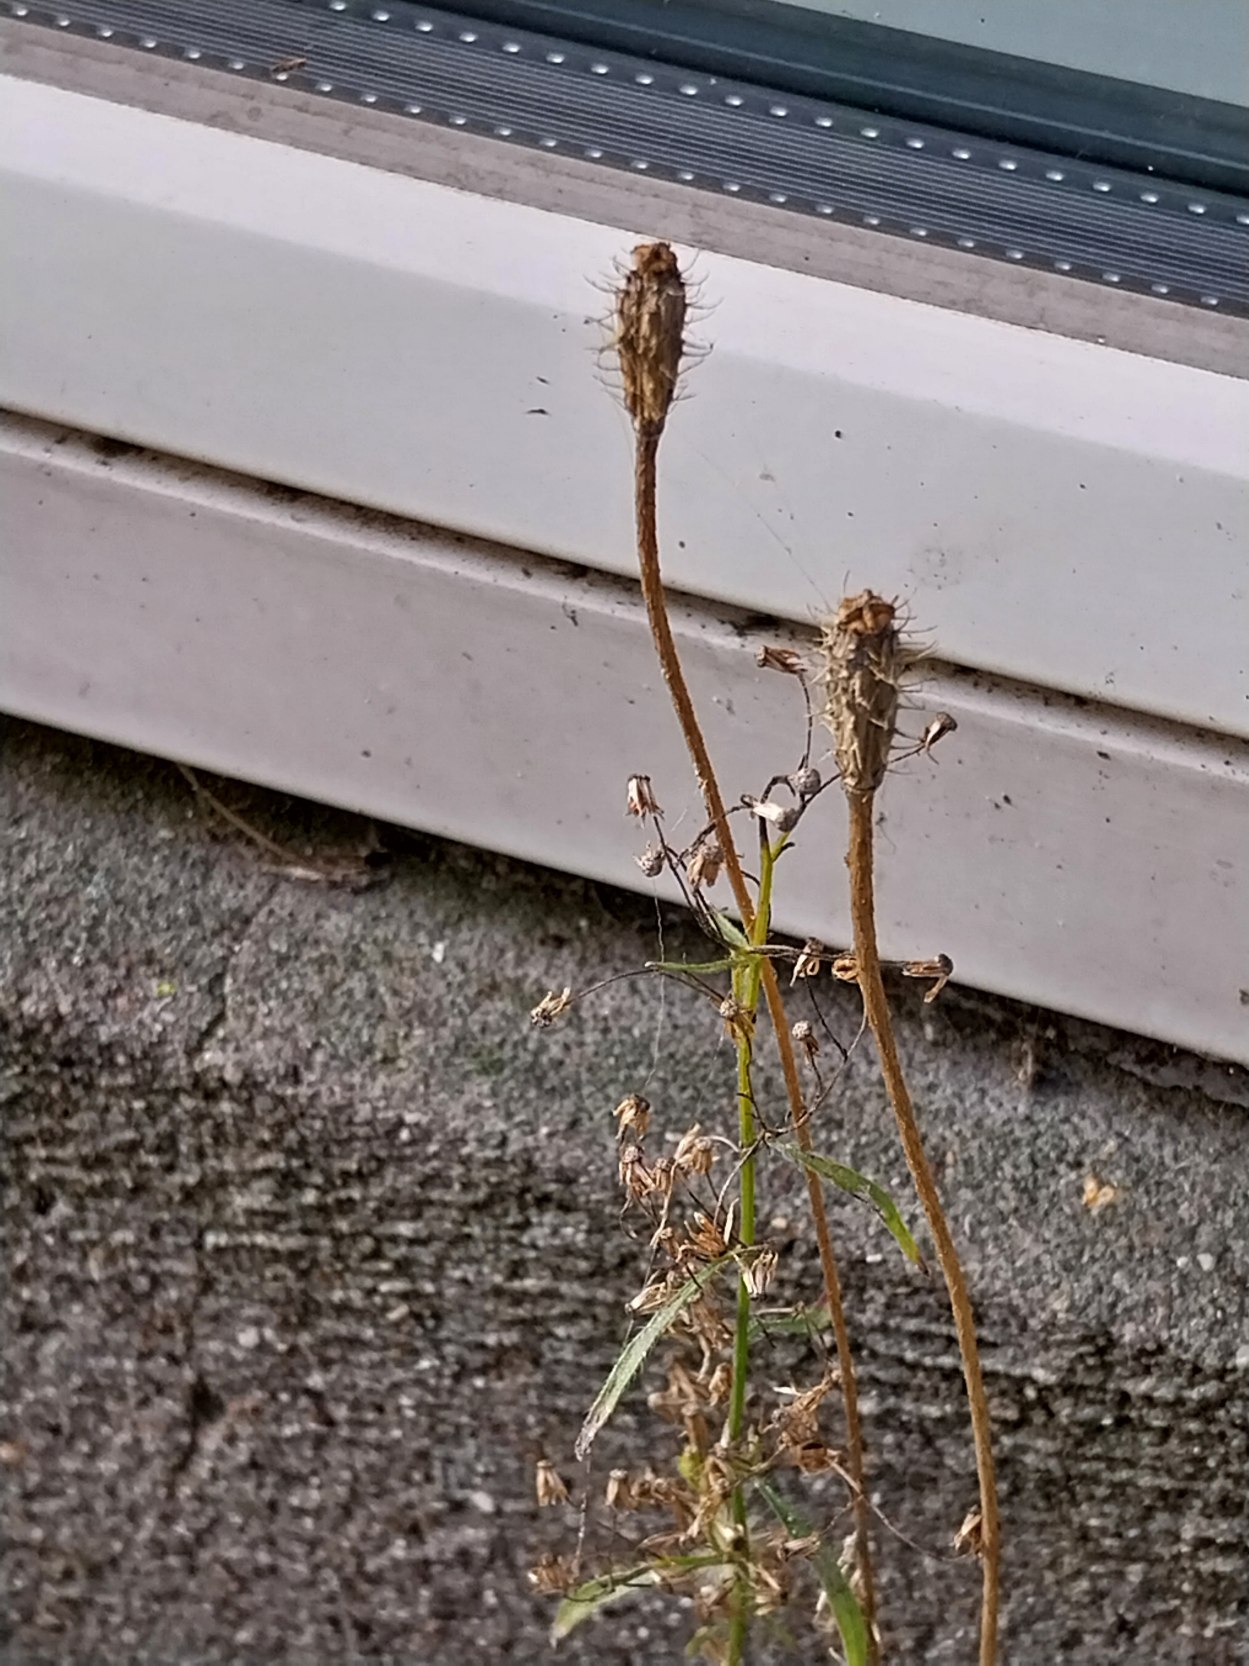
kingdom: Plantae
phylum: Tracheophyta
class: Magnoliopsida
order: Ranunculales
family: Papaveraceae
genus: Roemeria
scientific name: Roemeria argemone
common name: Kølle-valmue
